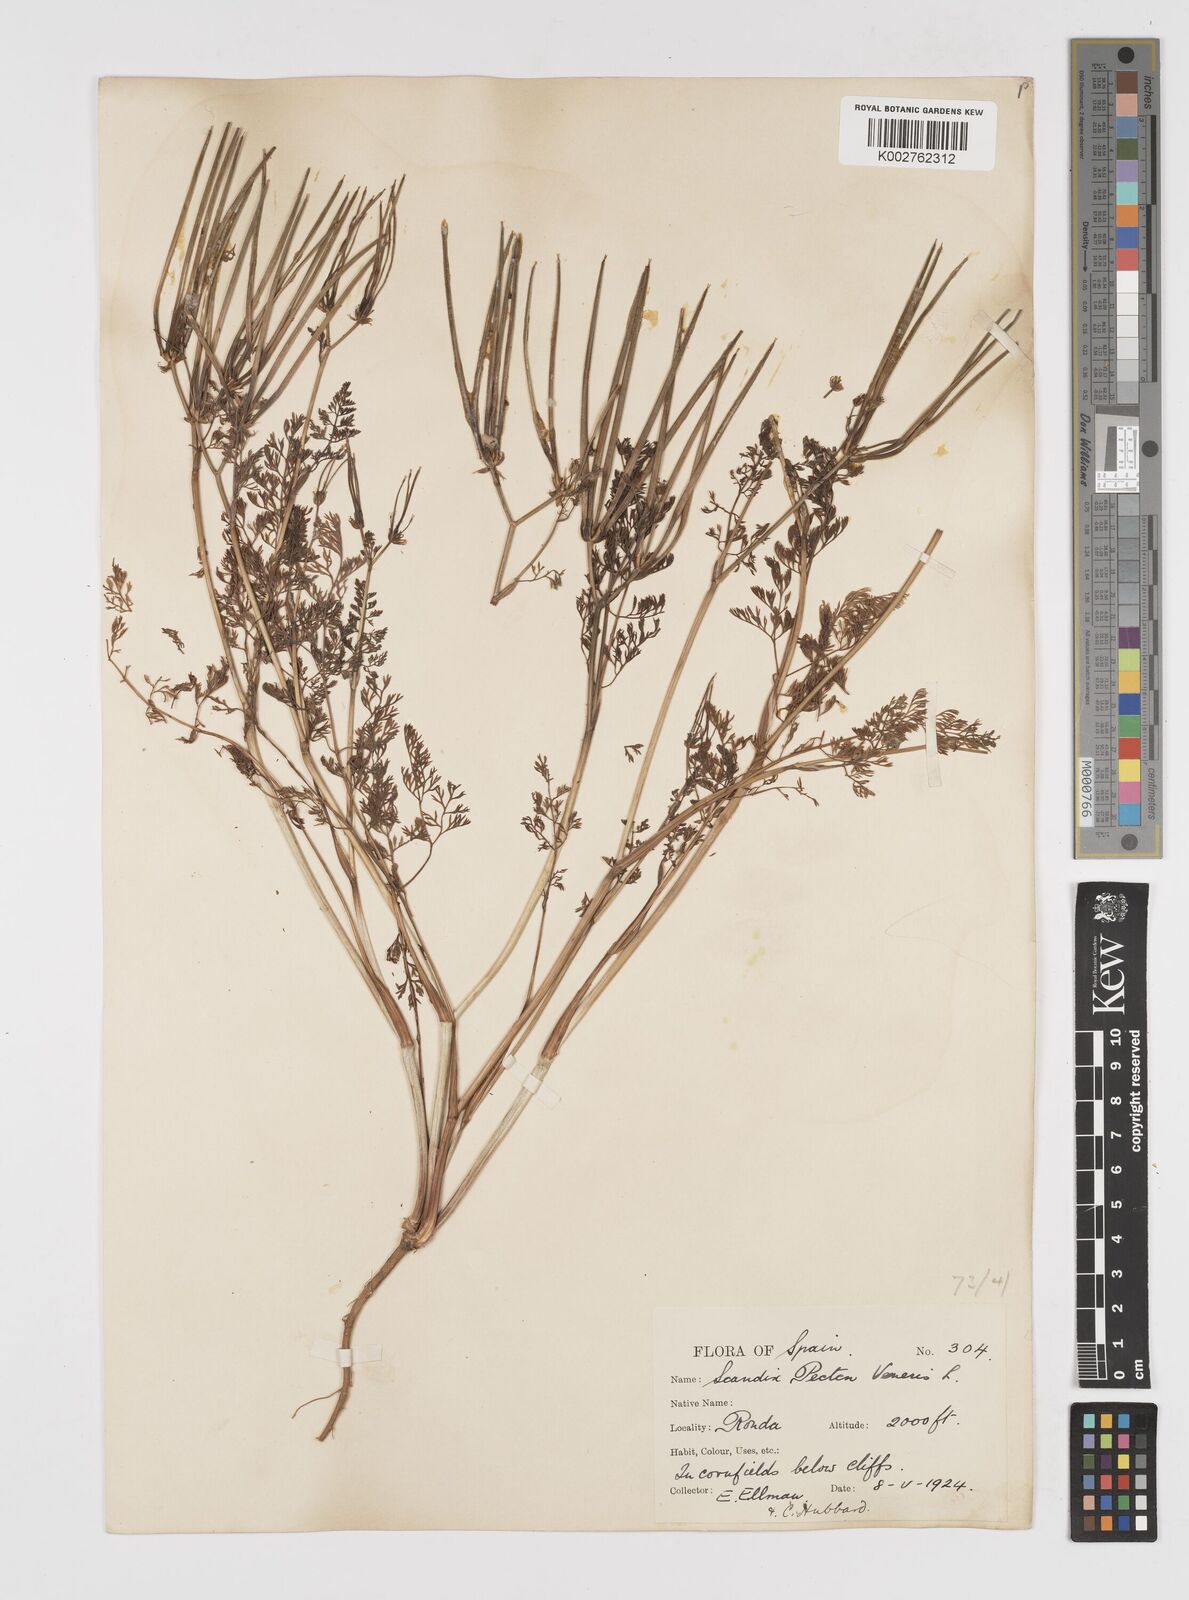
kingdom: Plantae
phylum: Tracheophyta
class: Magnoliopsida
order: Apiales
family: Apiaceae
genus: Scandix
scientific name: Scandix pecten-veneris
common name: Shepherd's-needle
